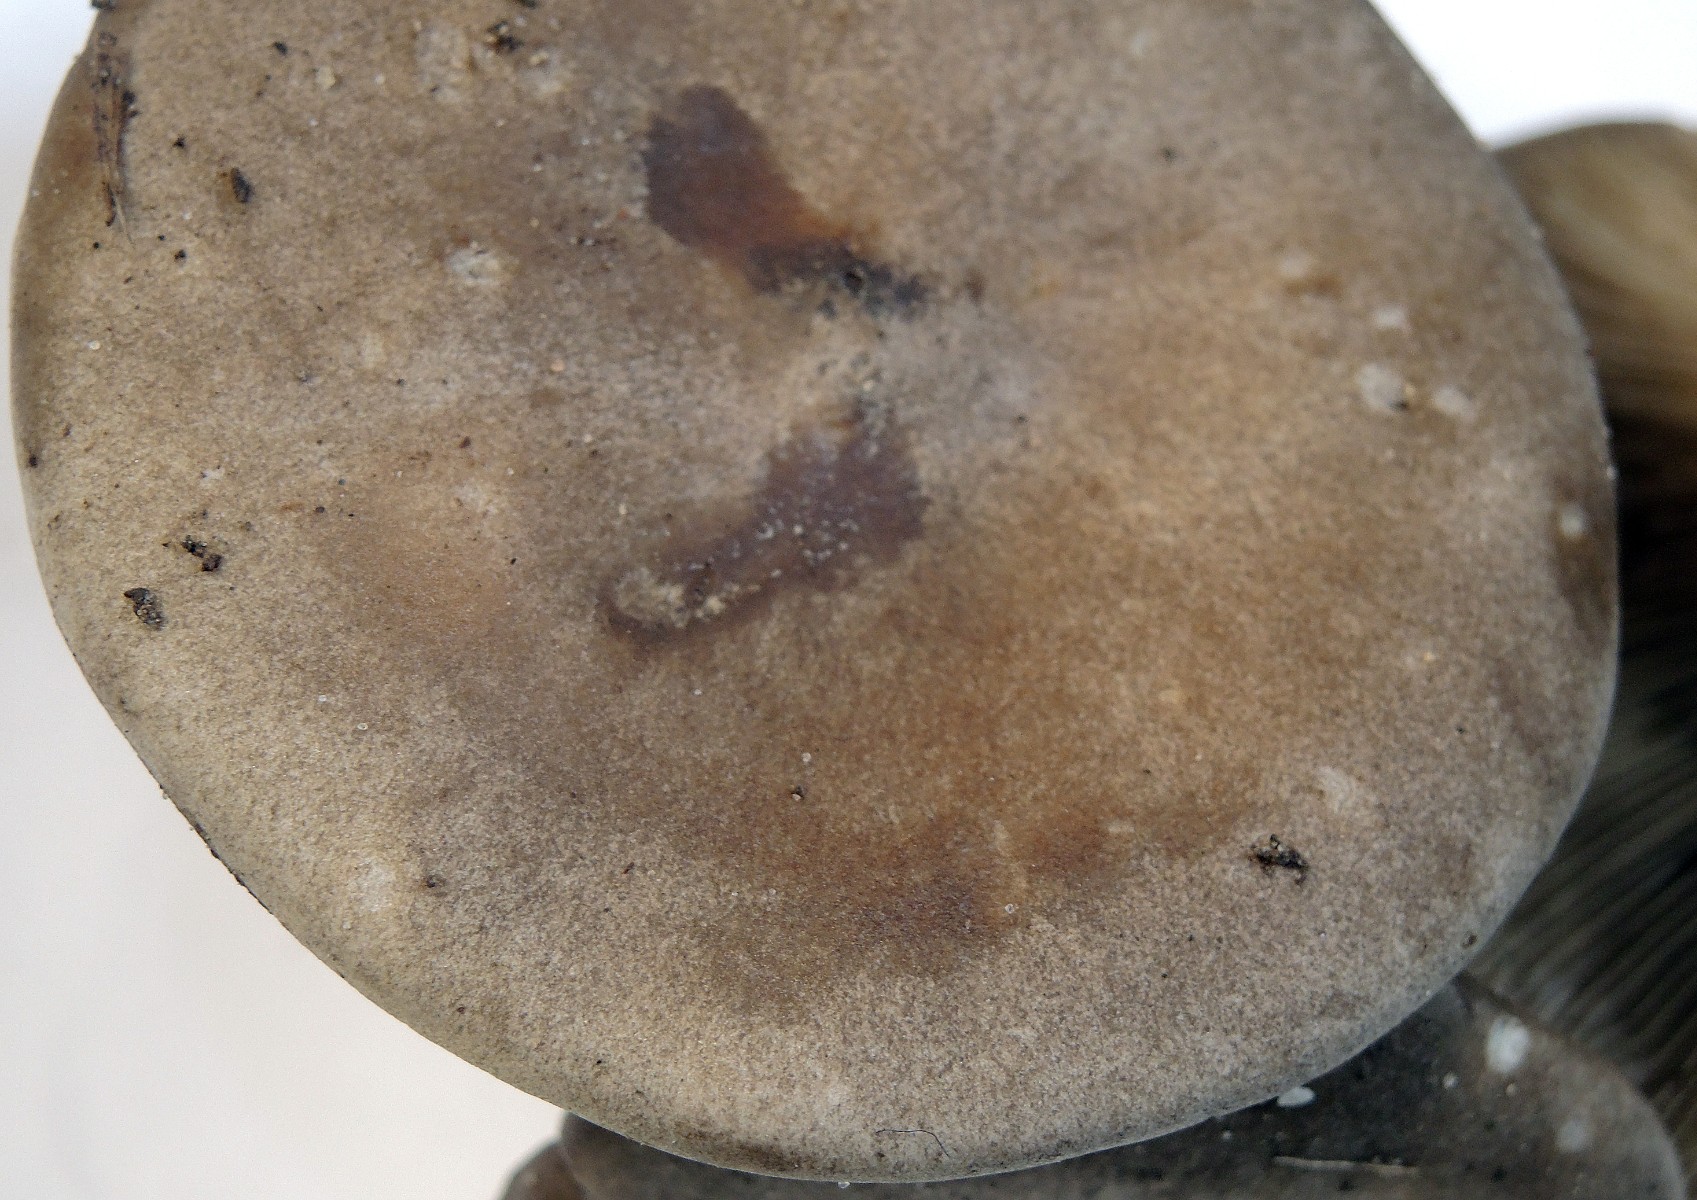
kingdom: Fungi
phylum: Basidiomycota
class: Agaricomycetes
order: Agaricales
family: Tricholomataceae
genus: Melanoleuca
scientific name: Melanoleuca humilis
